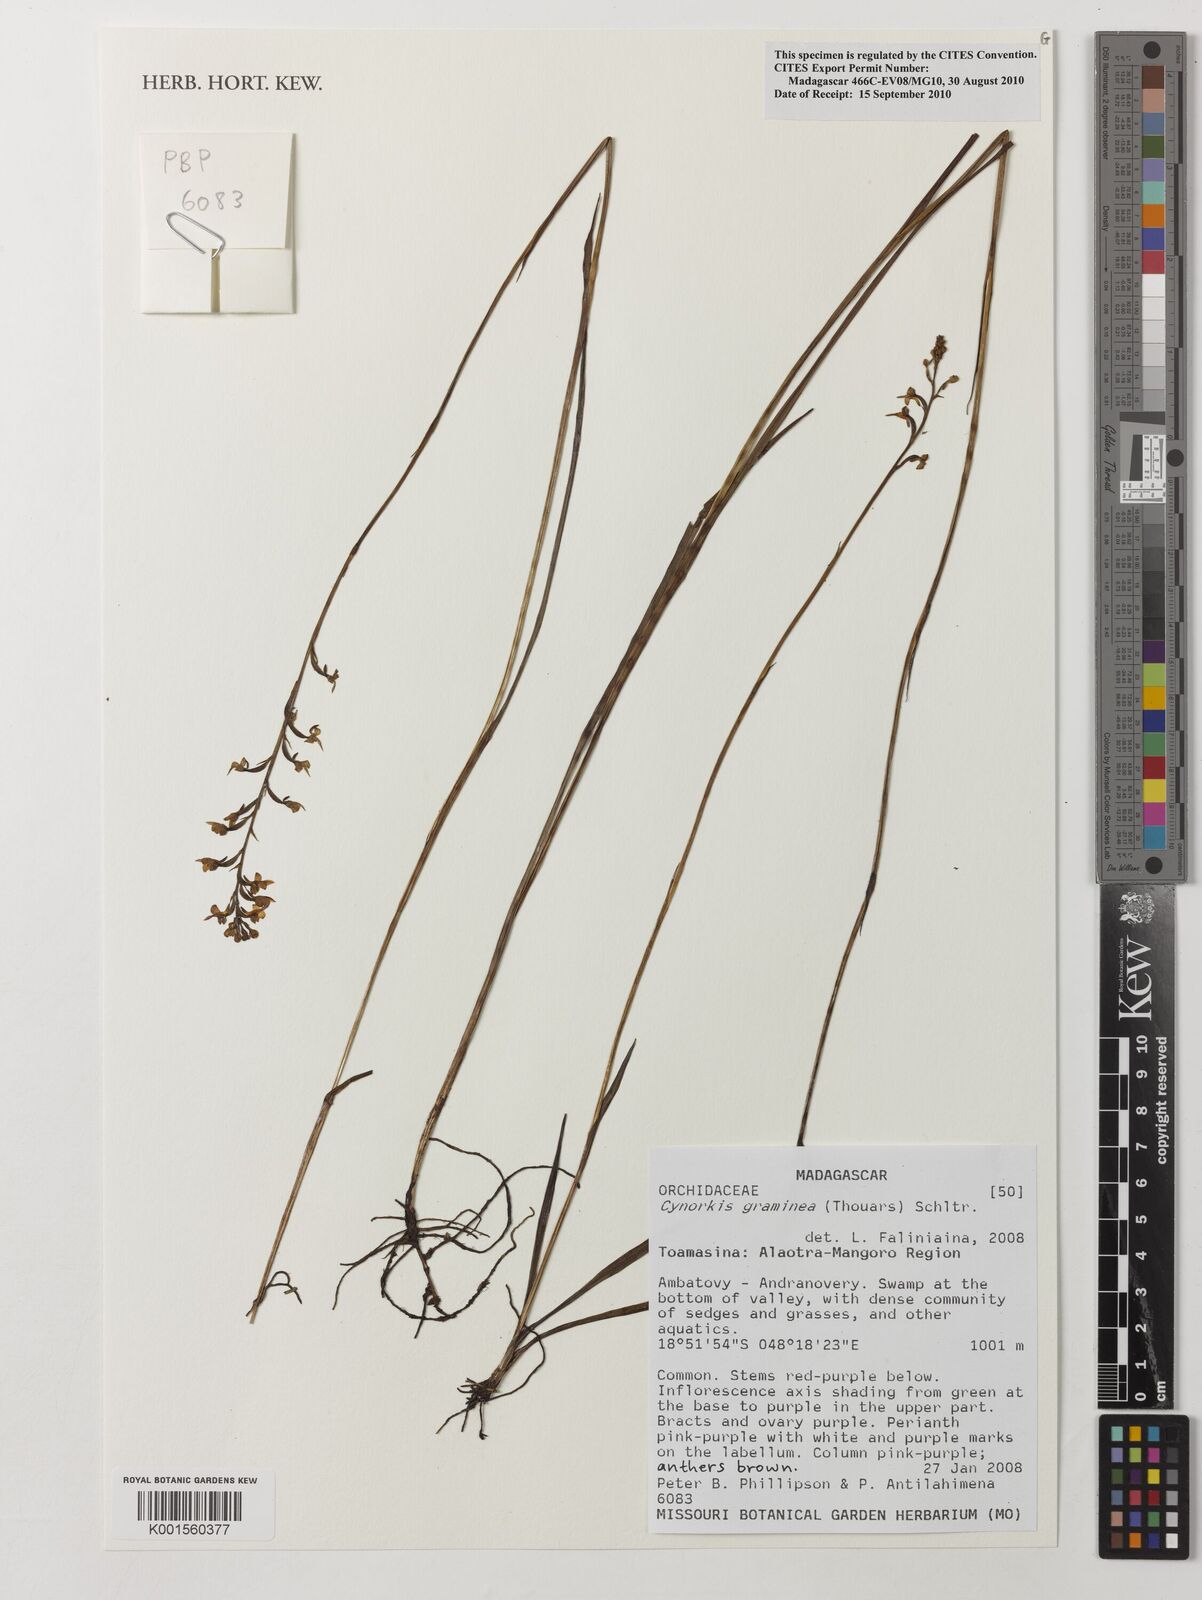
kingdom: Plantae
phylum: Tracheophyta
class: Liliopsida
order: Asparagales
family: Orchidaceae
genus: Cynorkis
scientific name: Cynorkis graminea
